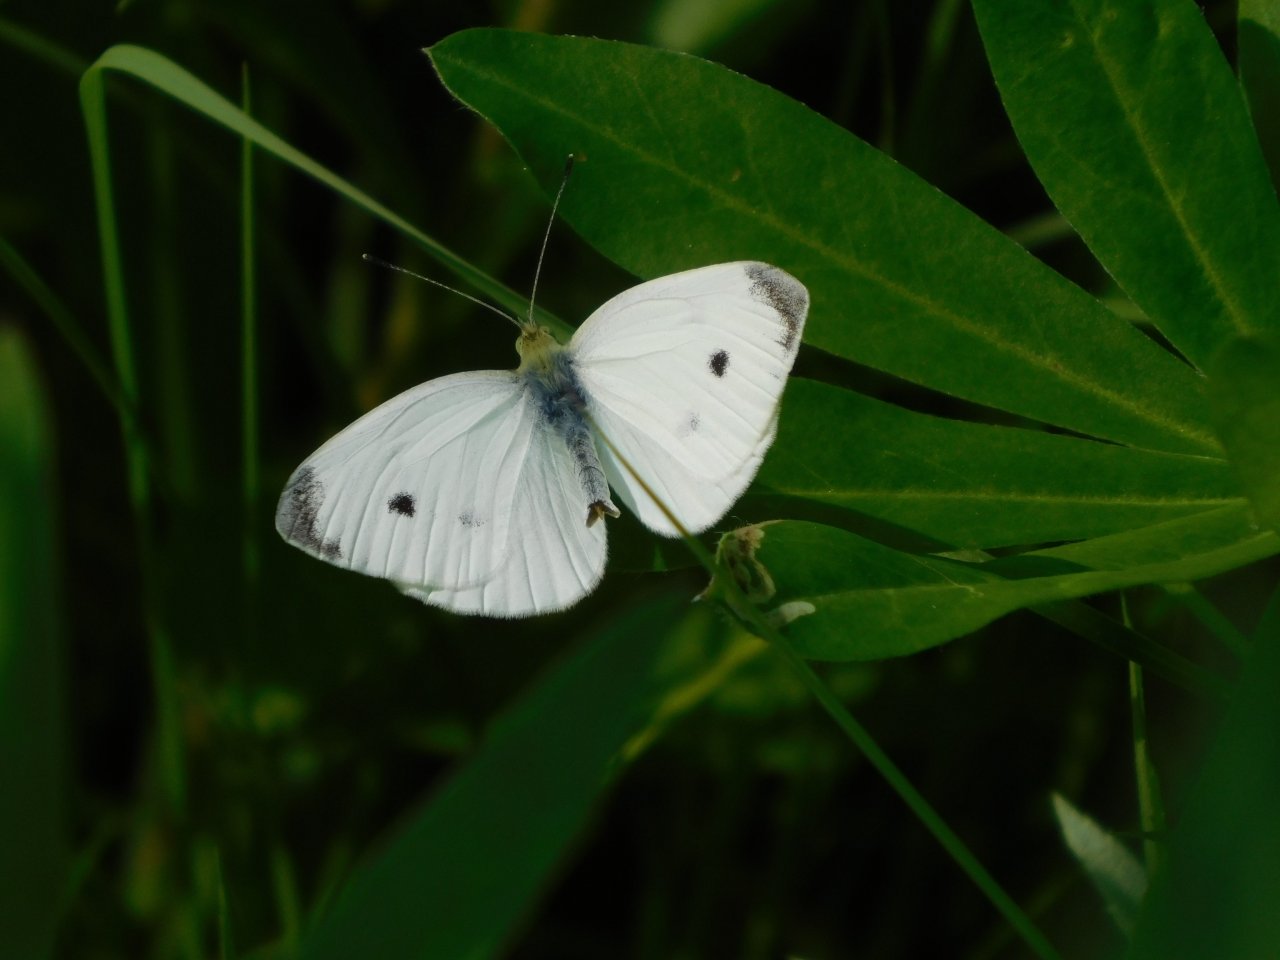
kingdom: Animalia
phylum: Arthropoda
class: Insecta
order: Lepidoptera
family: Pieridae
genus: Pieris
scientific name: Pieris rapae
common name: Cabbage White
